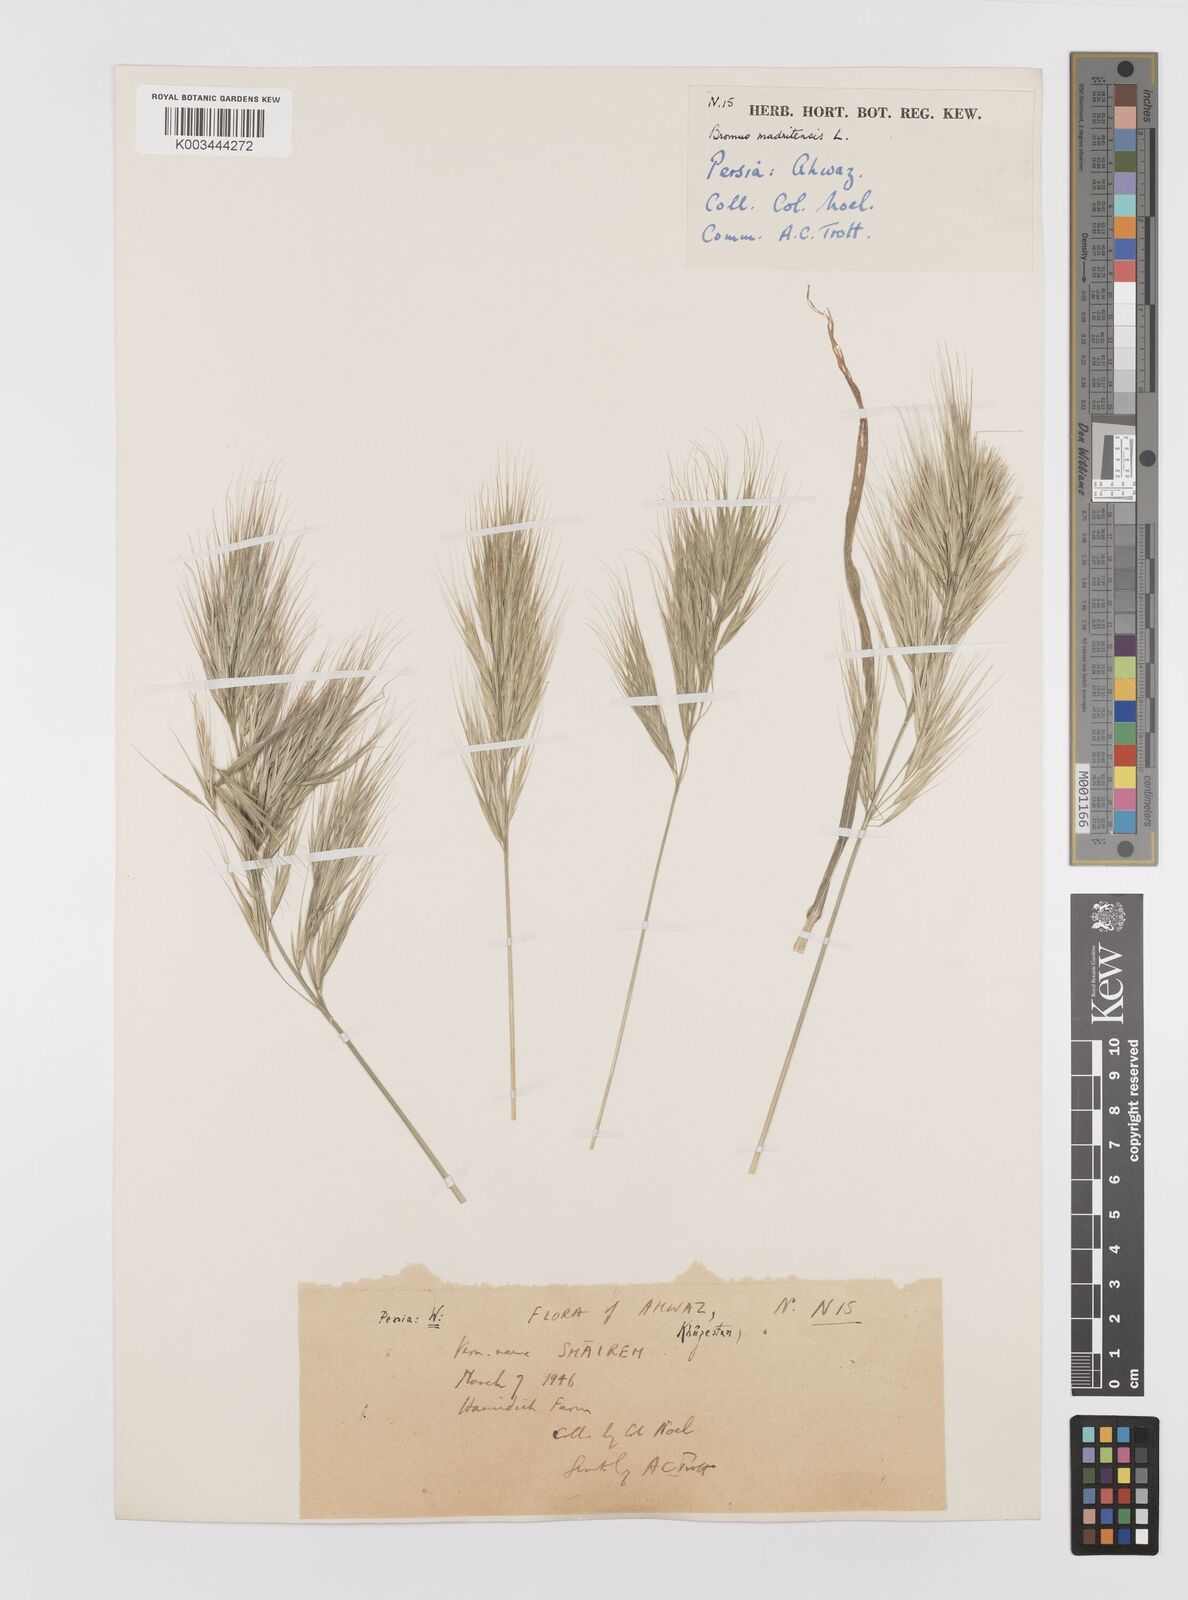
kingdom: Plantae
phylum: Tracheophyta
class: Liliopsida
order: Poales
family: Poaceae
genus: Bromus
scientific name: Bromus madritensis
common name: Compact brome
